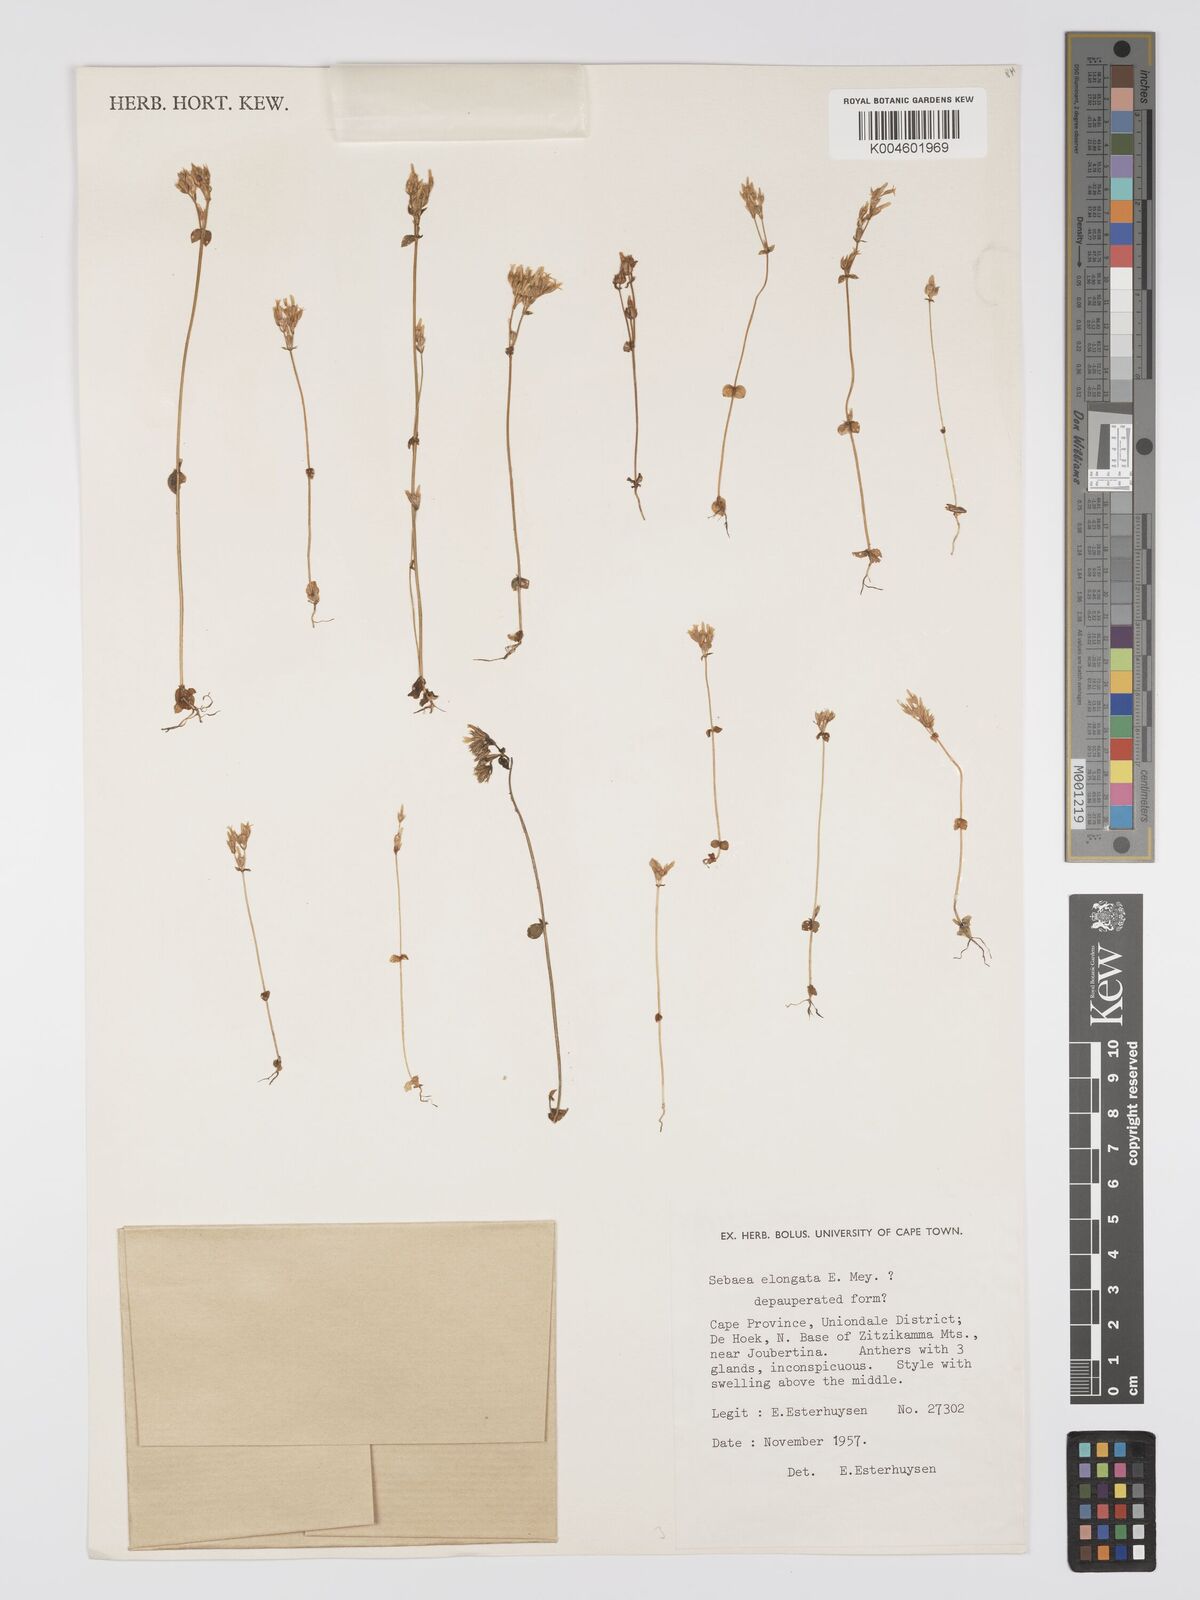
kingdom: Plantae
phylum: Tracheophyta
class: Magnoliopsida
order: Gentianales
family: Gentianaceae
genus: Sebaea
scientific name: Sebaea elongata
